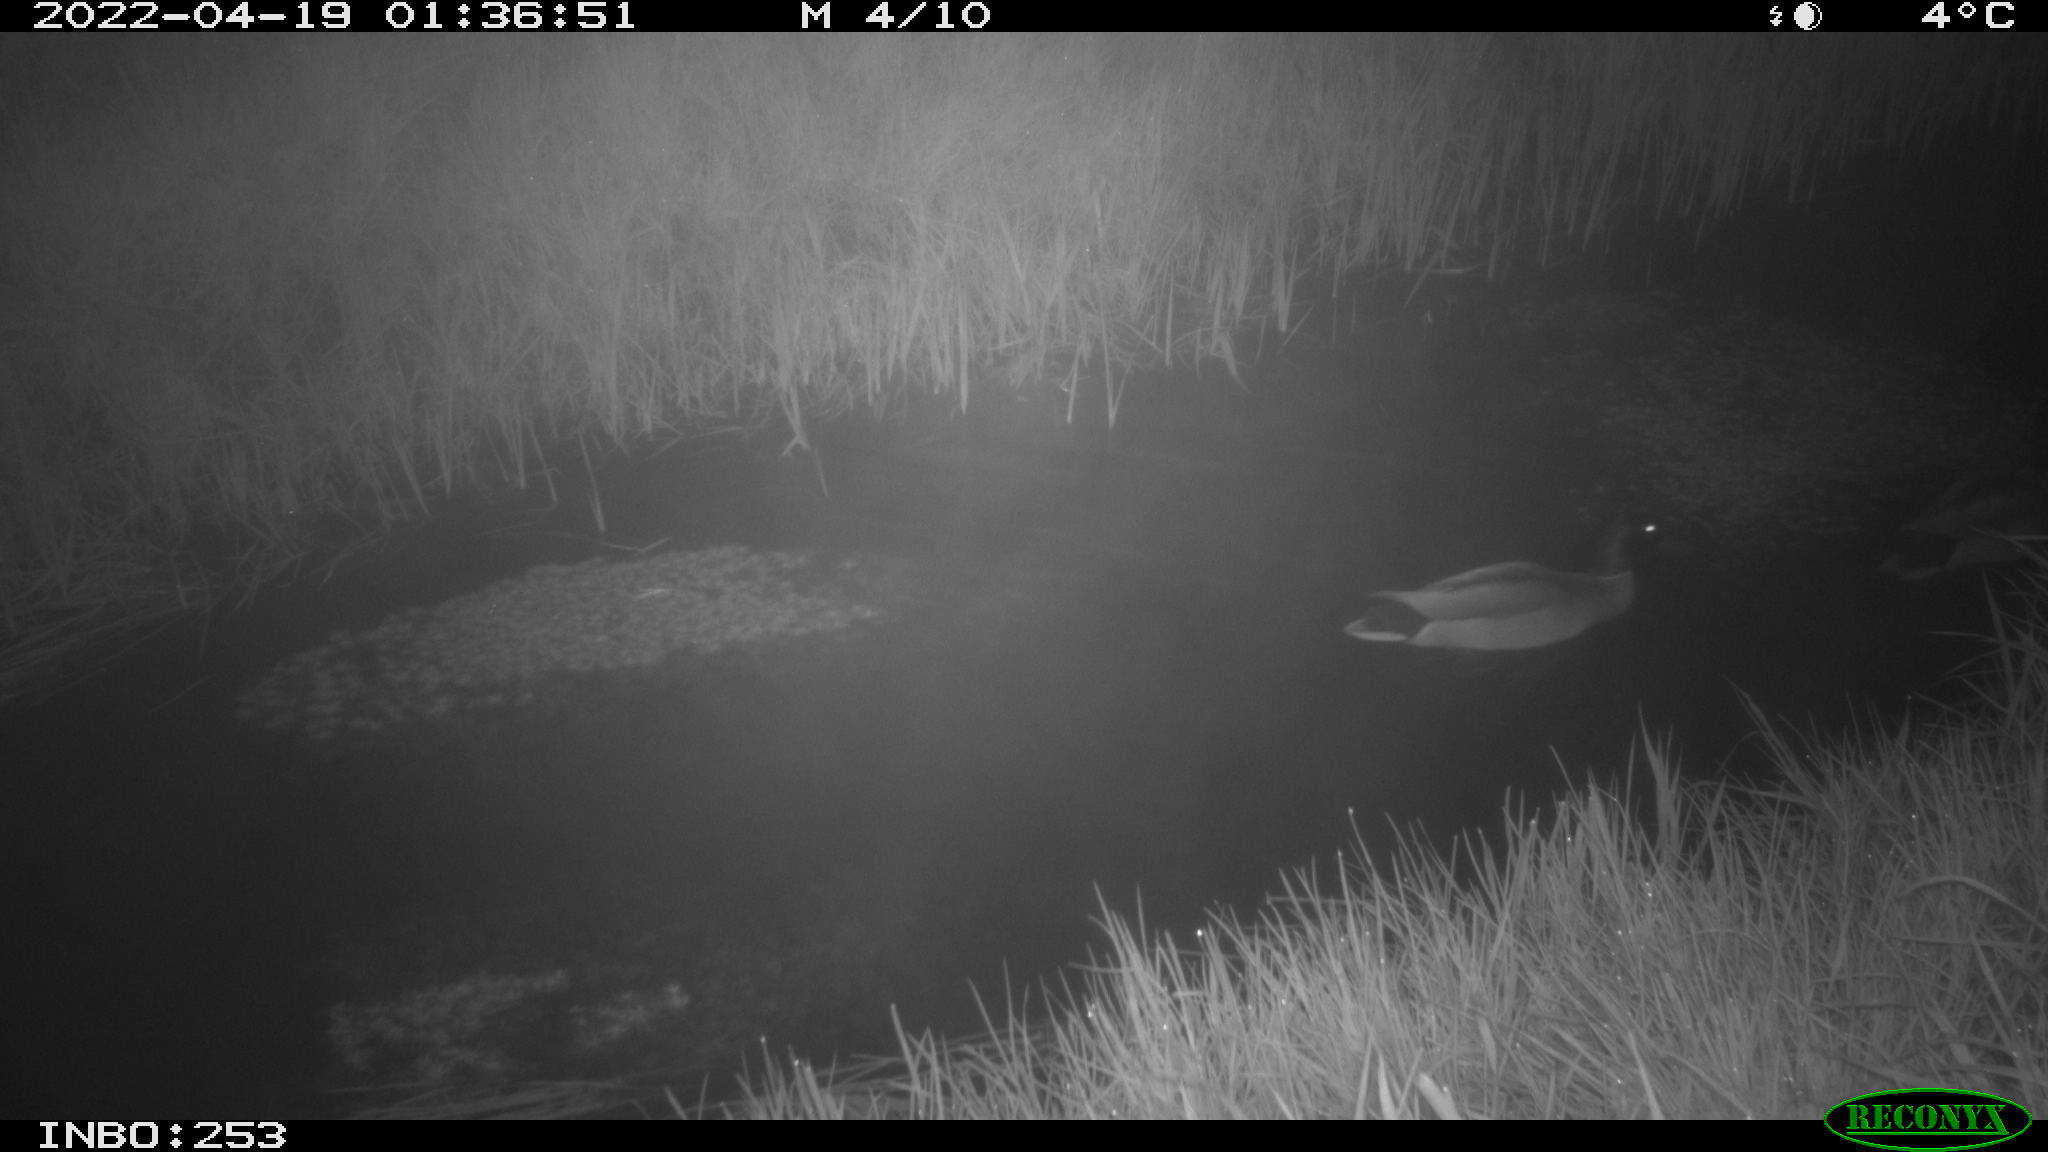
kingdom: Animalia
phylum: Chordata
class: Aves
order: Anseriformes
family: Anatidae
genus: Anas
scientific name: Anas platyrhynchos
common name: Mallard
